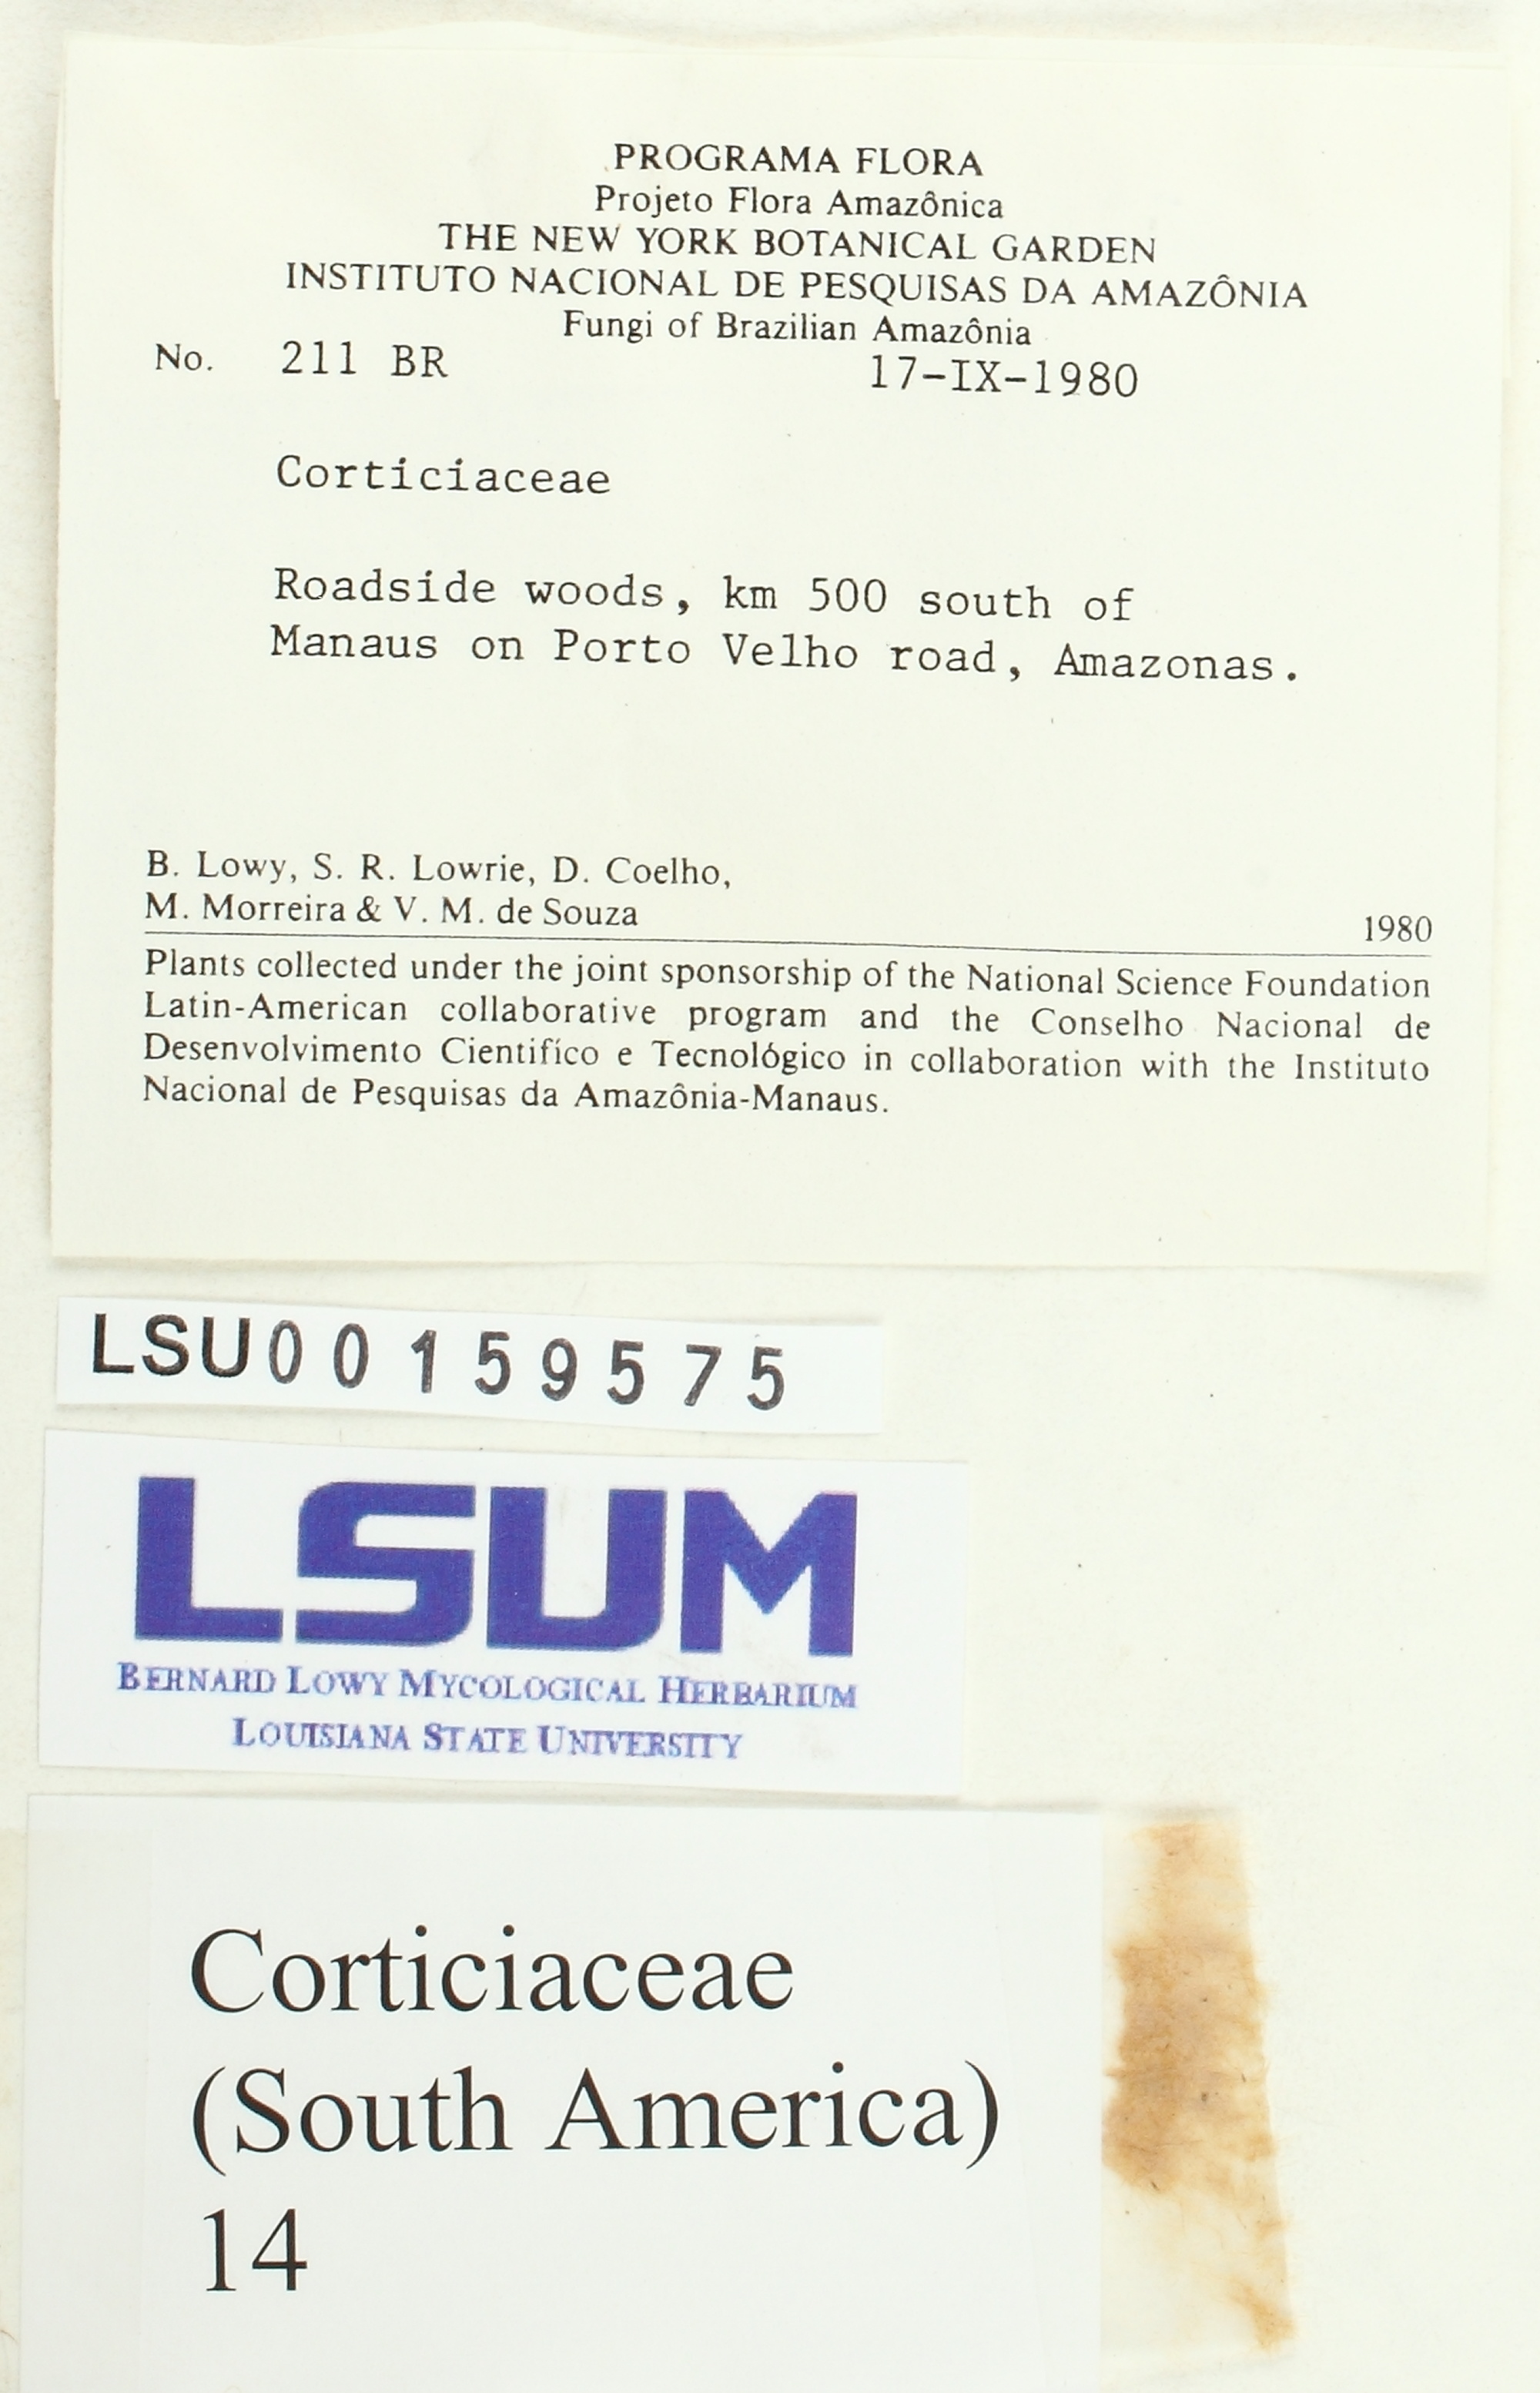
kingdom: Fungi
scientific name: Fungi
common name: Fungi
